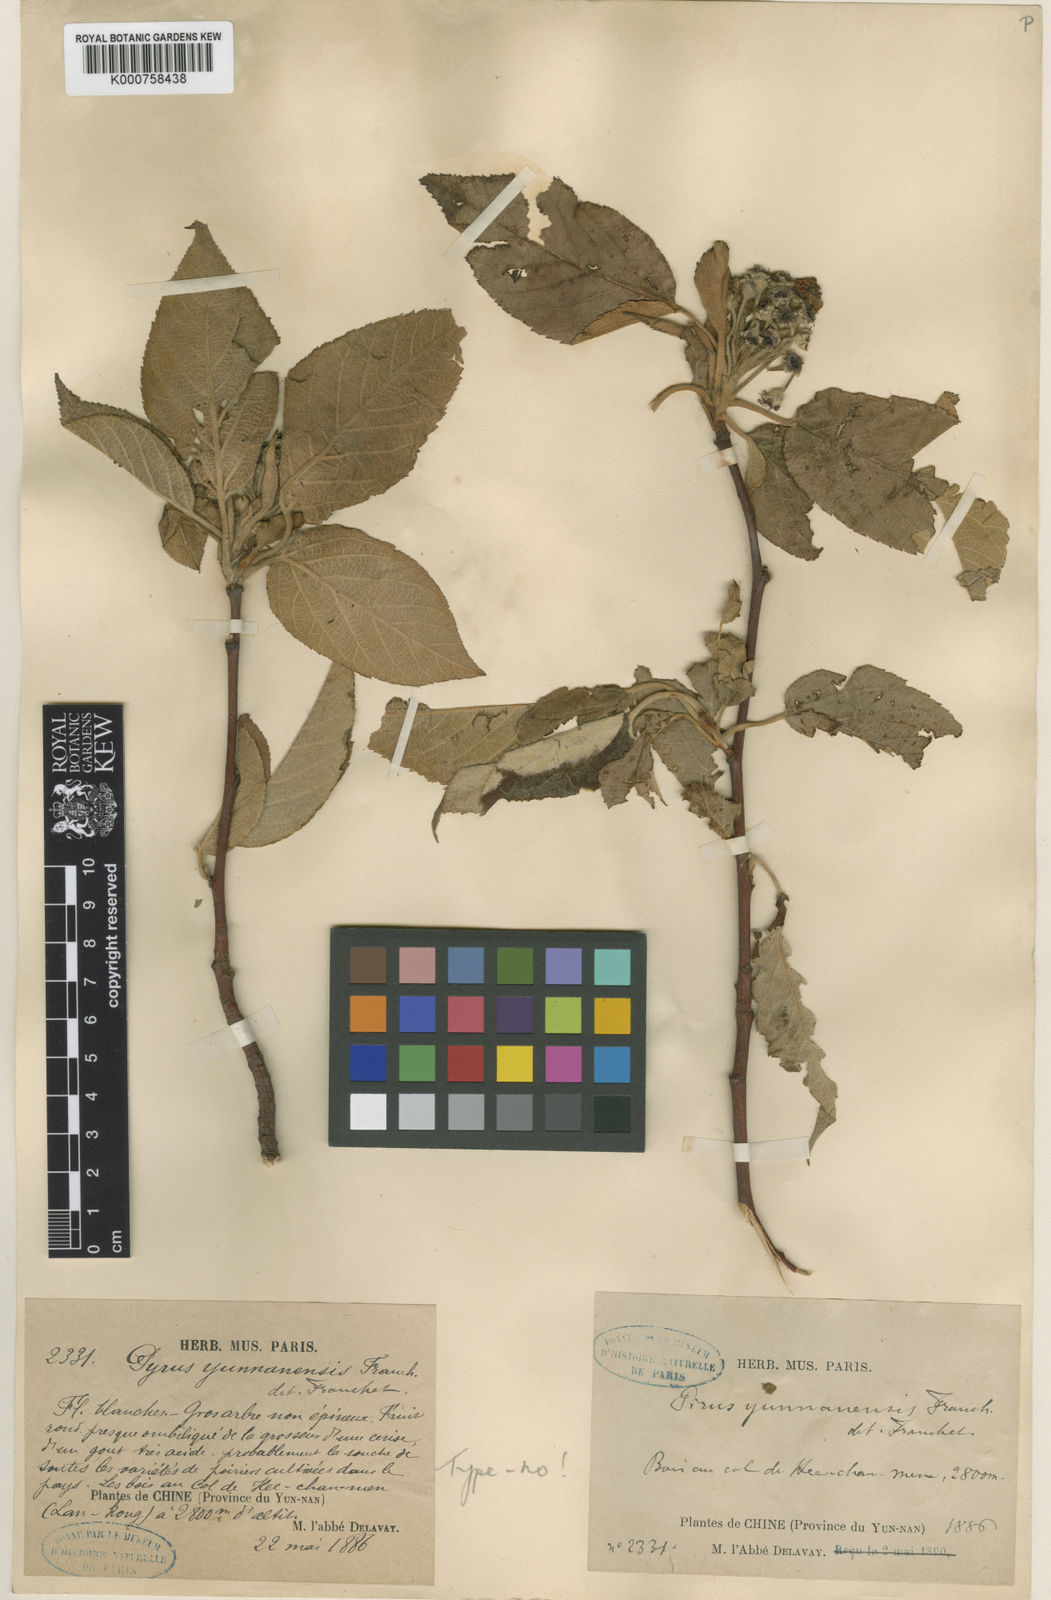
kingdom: Plantae
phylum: Tracheophyta
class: Magnoliopsida
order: Rosales
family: Rosaceae
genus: Malus
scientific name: Malus yunnanensis
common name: Yunnan crabapple
